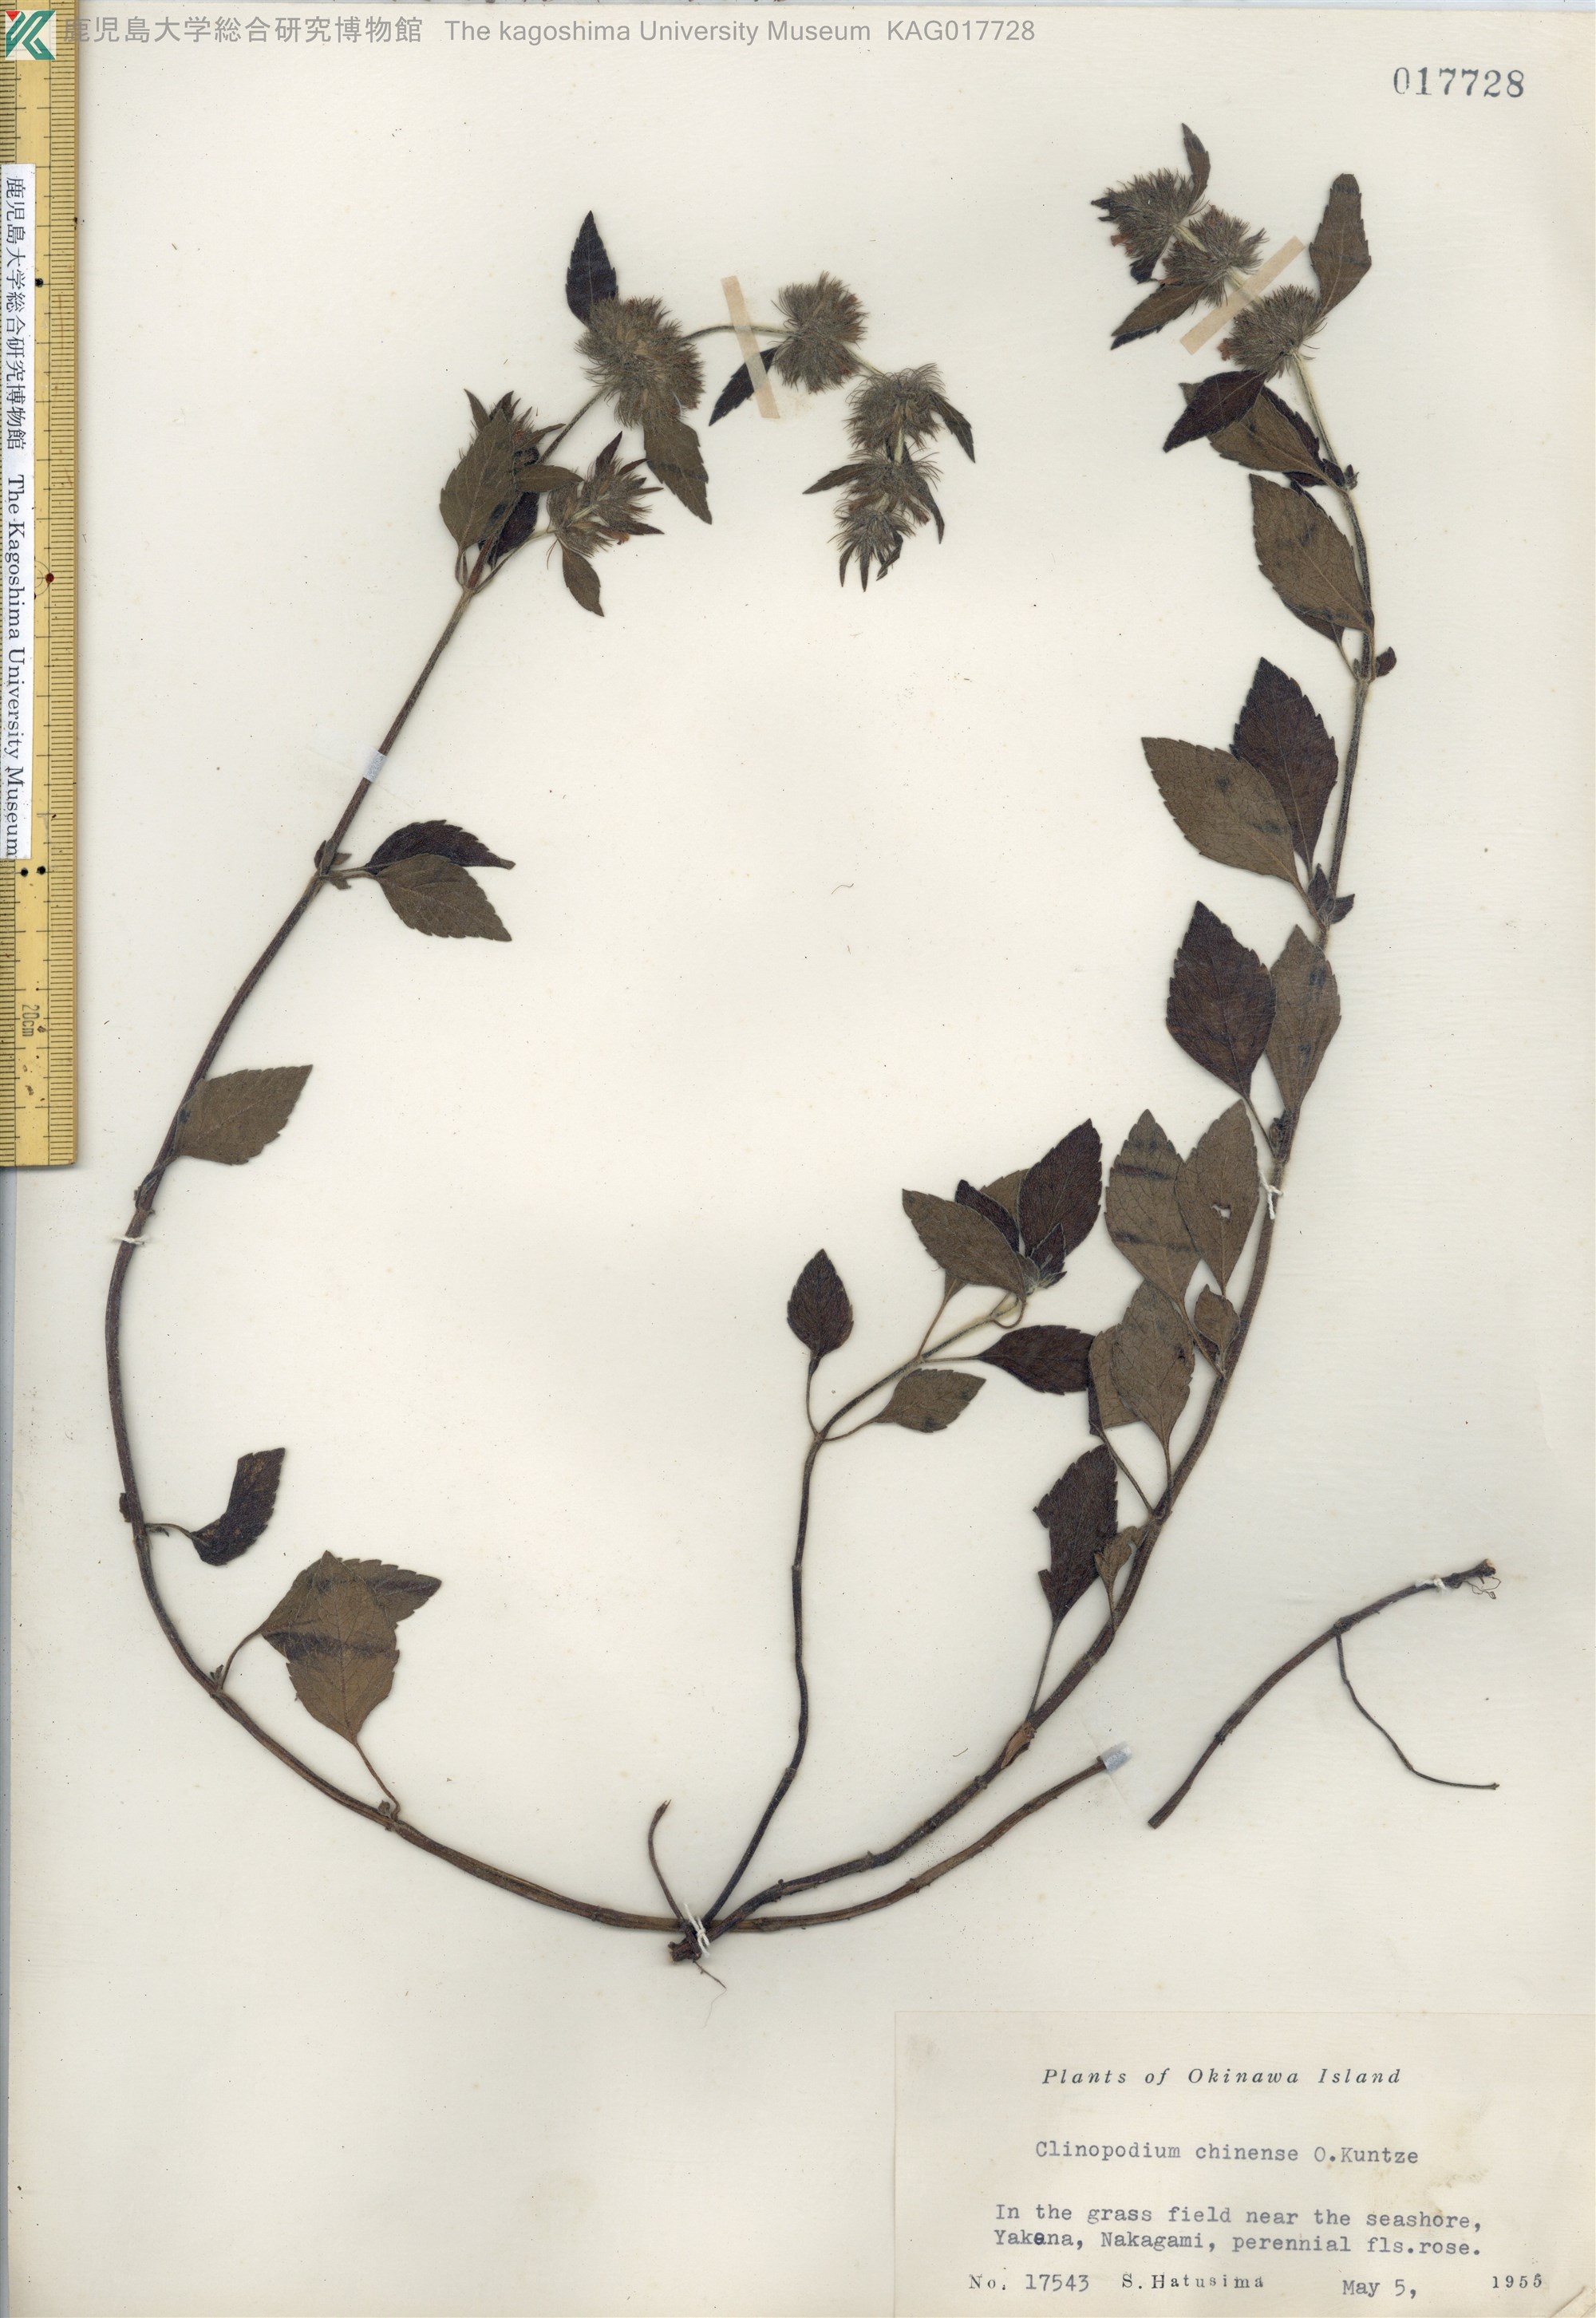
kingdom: Plantae
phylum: Tracheophyta
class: Magnoliopsida
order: Lamiales
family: Lamiaceae
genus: Clinopodium
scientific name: Clinopodium chinense
